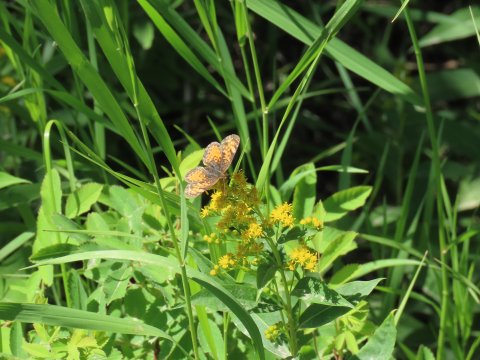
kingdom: Animalia
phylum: Arthropoda
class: Insecta
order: Lepidoptera
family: Nymphalidae
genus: Phyciodes
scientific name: Phyciodes tharos
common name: Northern Crescent
